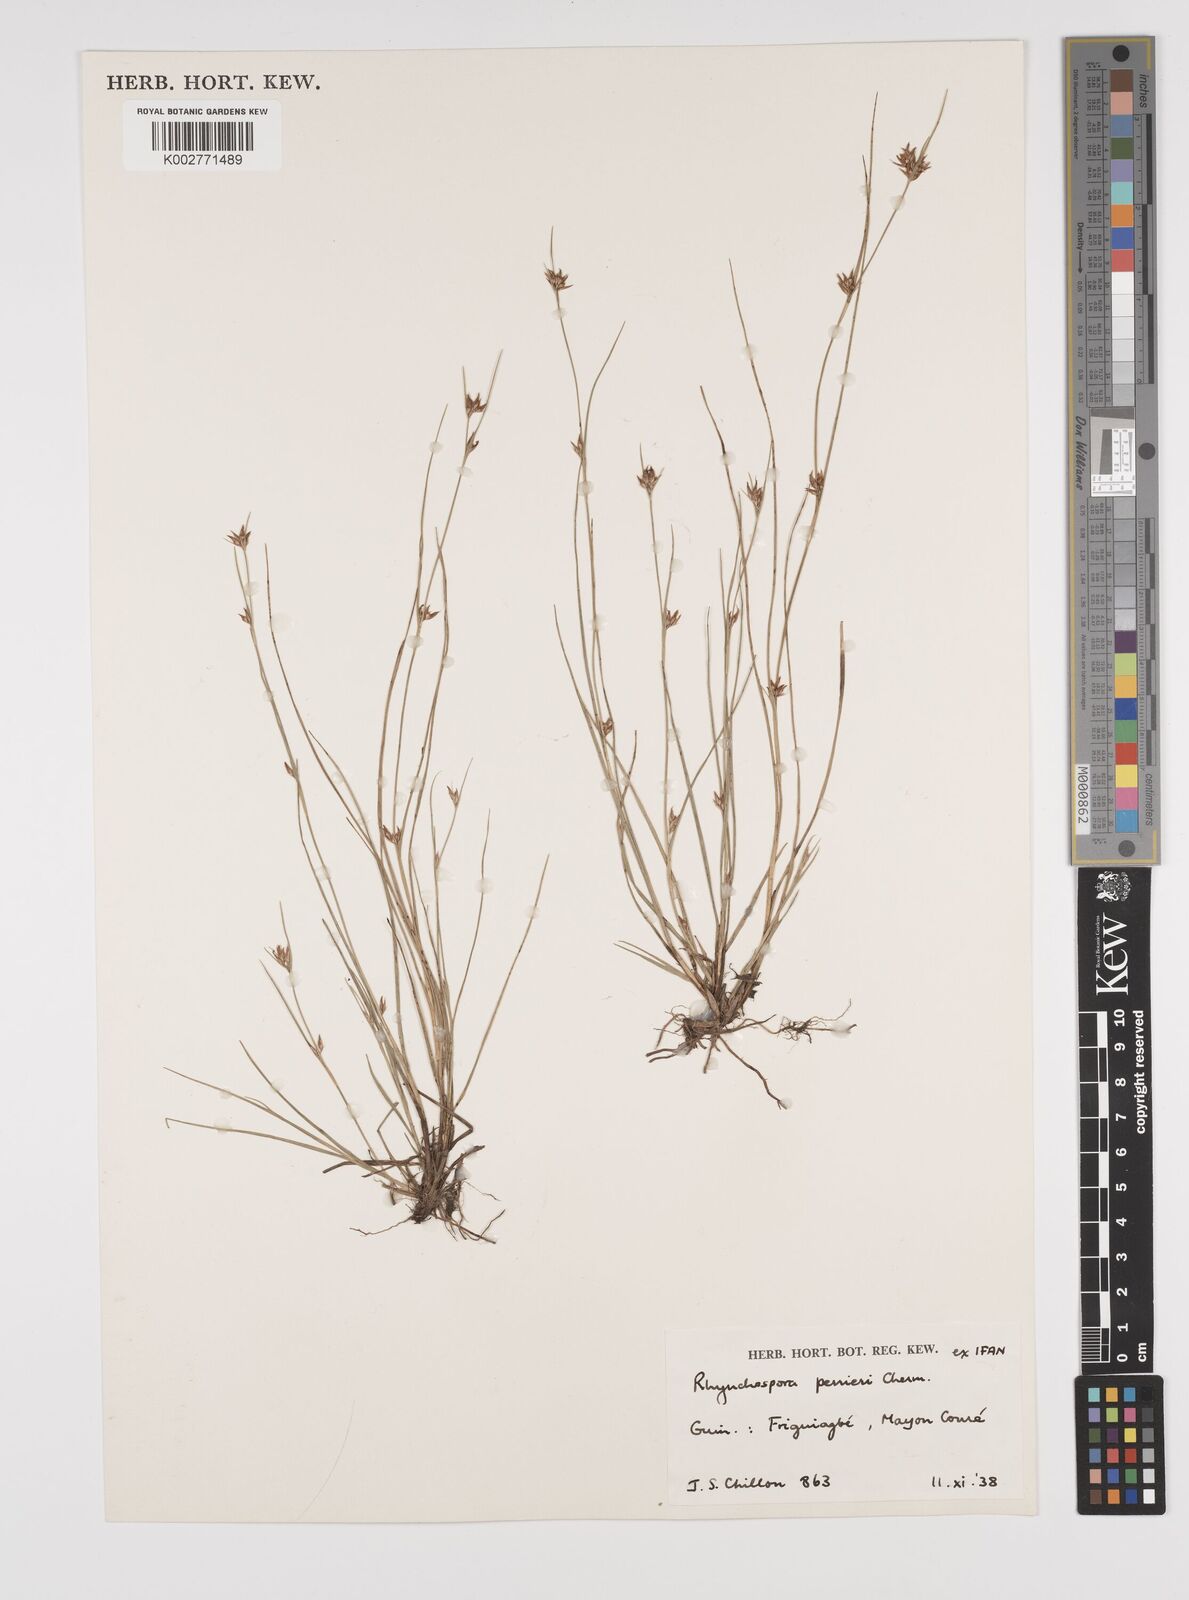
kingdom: Plantae
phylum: Tracheophyta
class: Liliopsida
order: Poales
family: Cyperaceae
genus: Rhynchospora
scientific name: Rhynchospora perrieri
